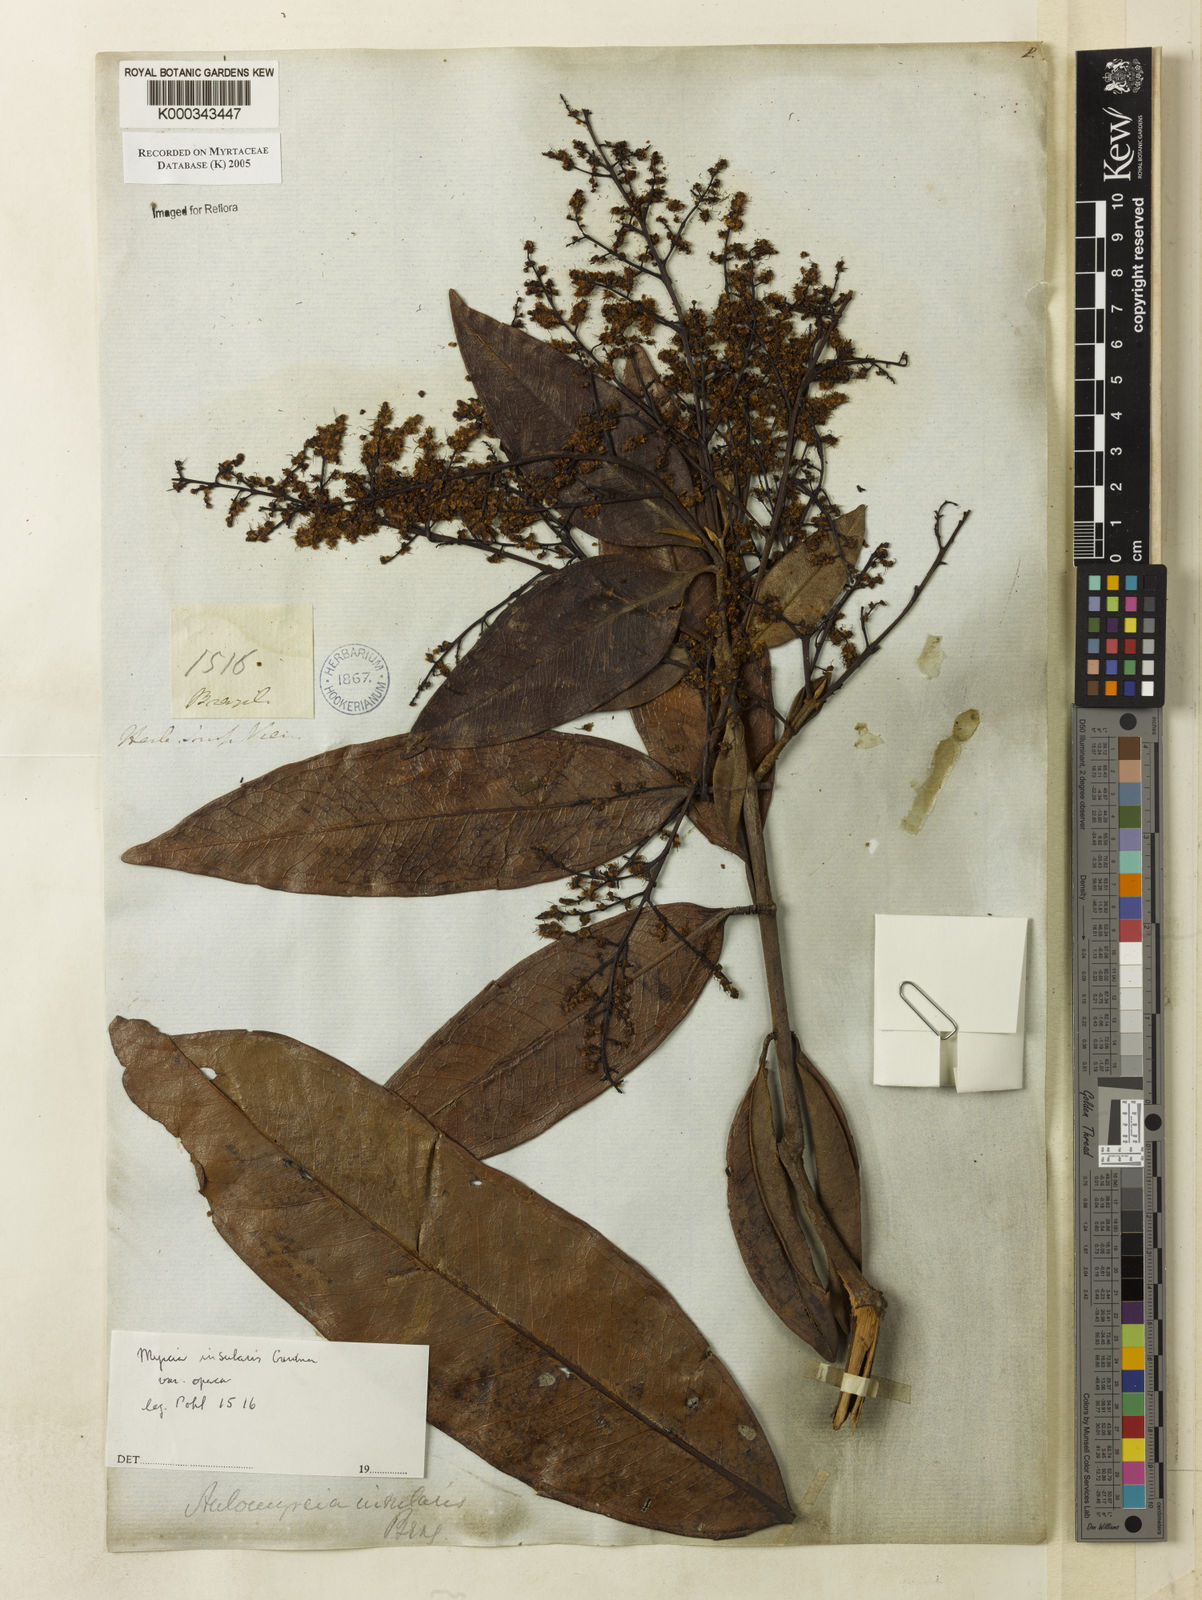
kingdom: Plantae
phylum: Tracheophyta
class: Magnoliopsida
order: Myrtales
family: Myrtaceae
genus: Myrcia
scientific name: Myrcia insularis
